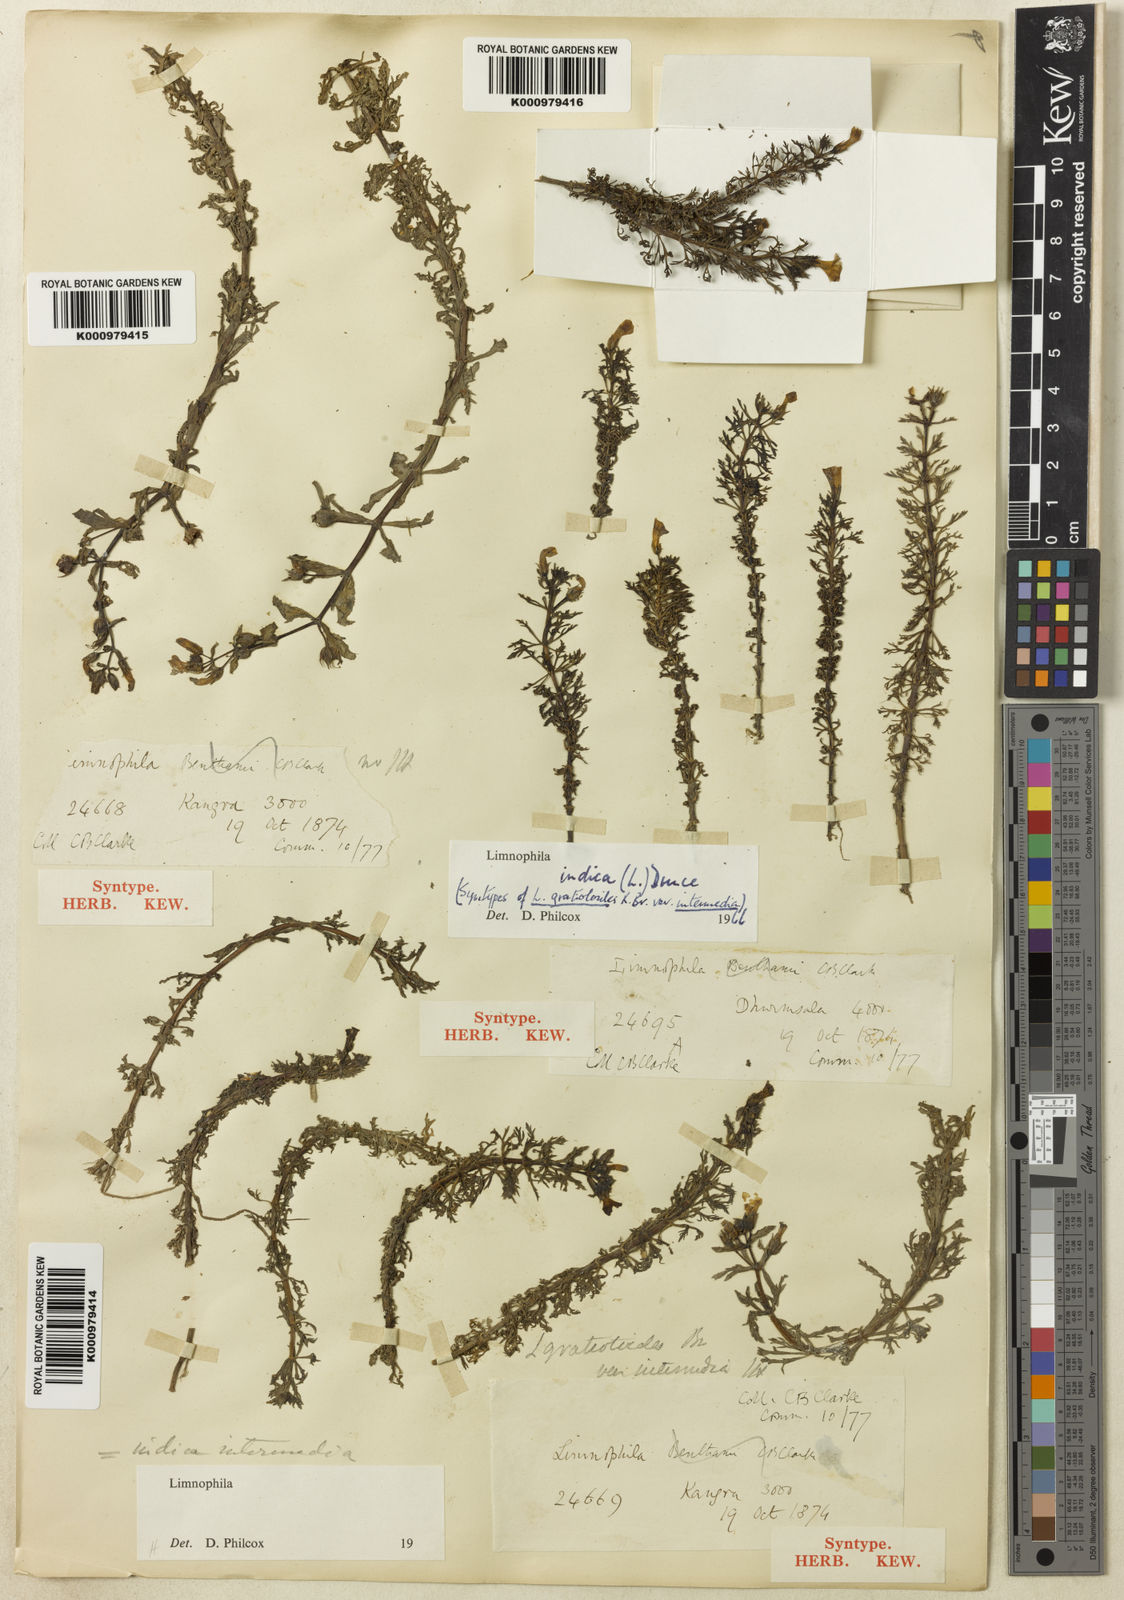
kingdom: Plantae
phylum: Tracheophyta
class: Magnoliopsida
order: Lamiales
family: Plantaginaceae
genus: Limnophila
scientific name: Limnophila indica
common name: Indian marshweed
